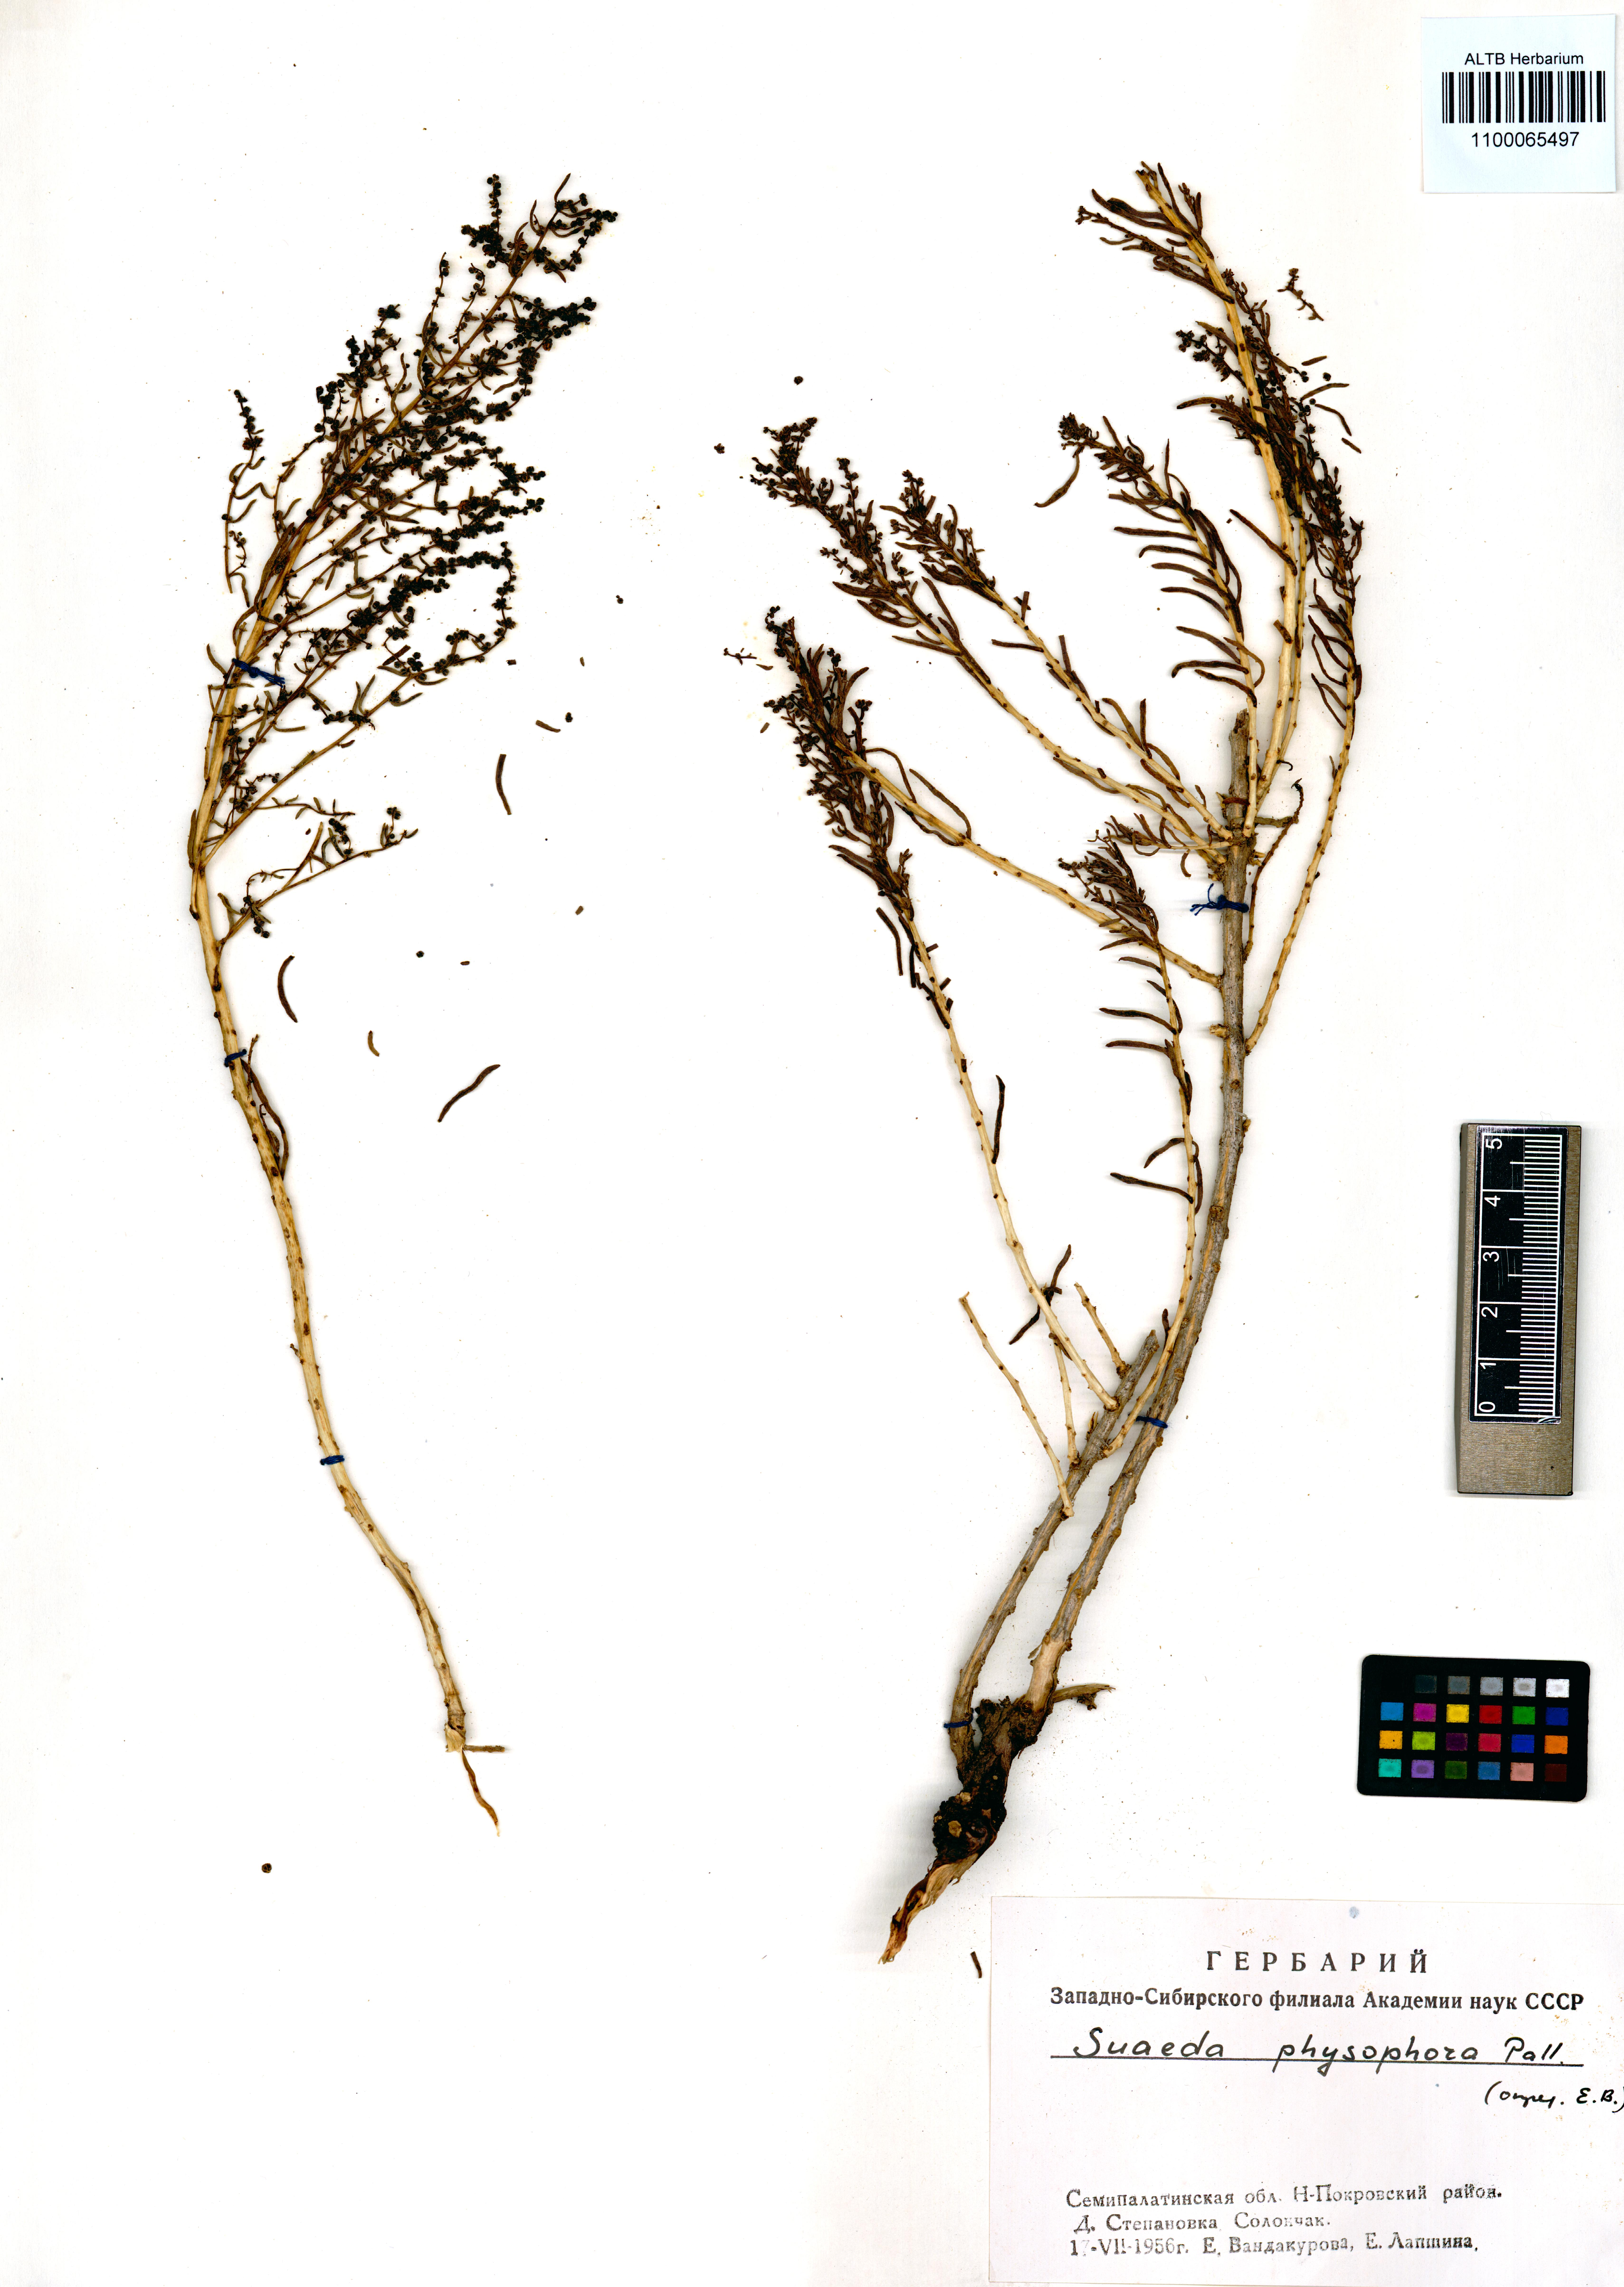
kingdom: Plantae
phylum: Tracheophyta
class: Magnoliopsida
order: Caryophyllales
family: Amaranthaceae
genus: Suaeda
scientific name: Suaeda physophora
